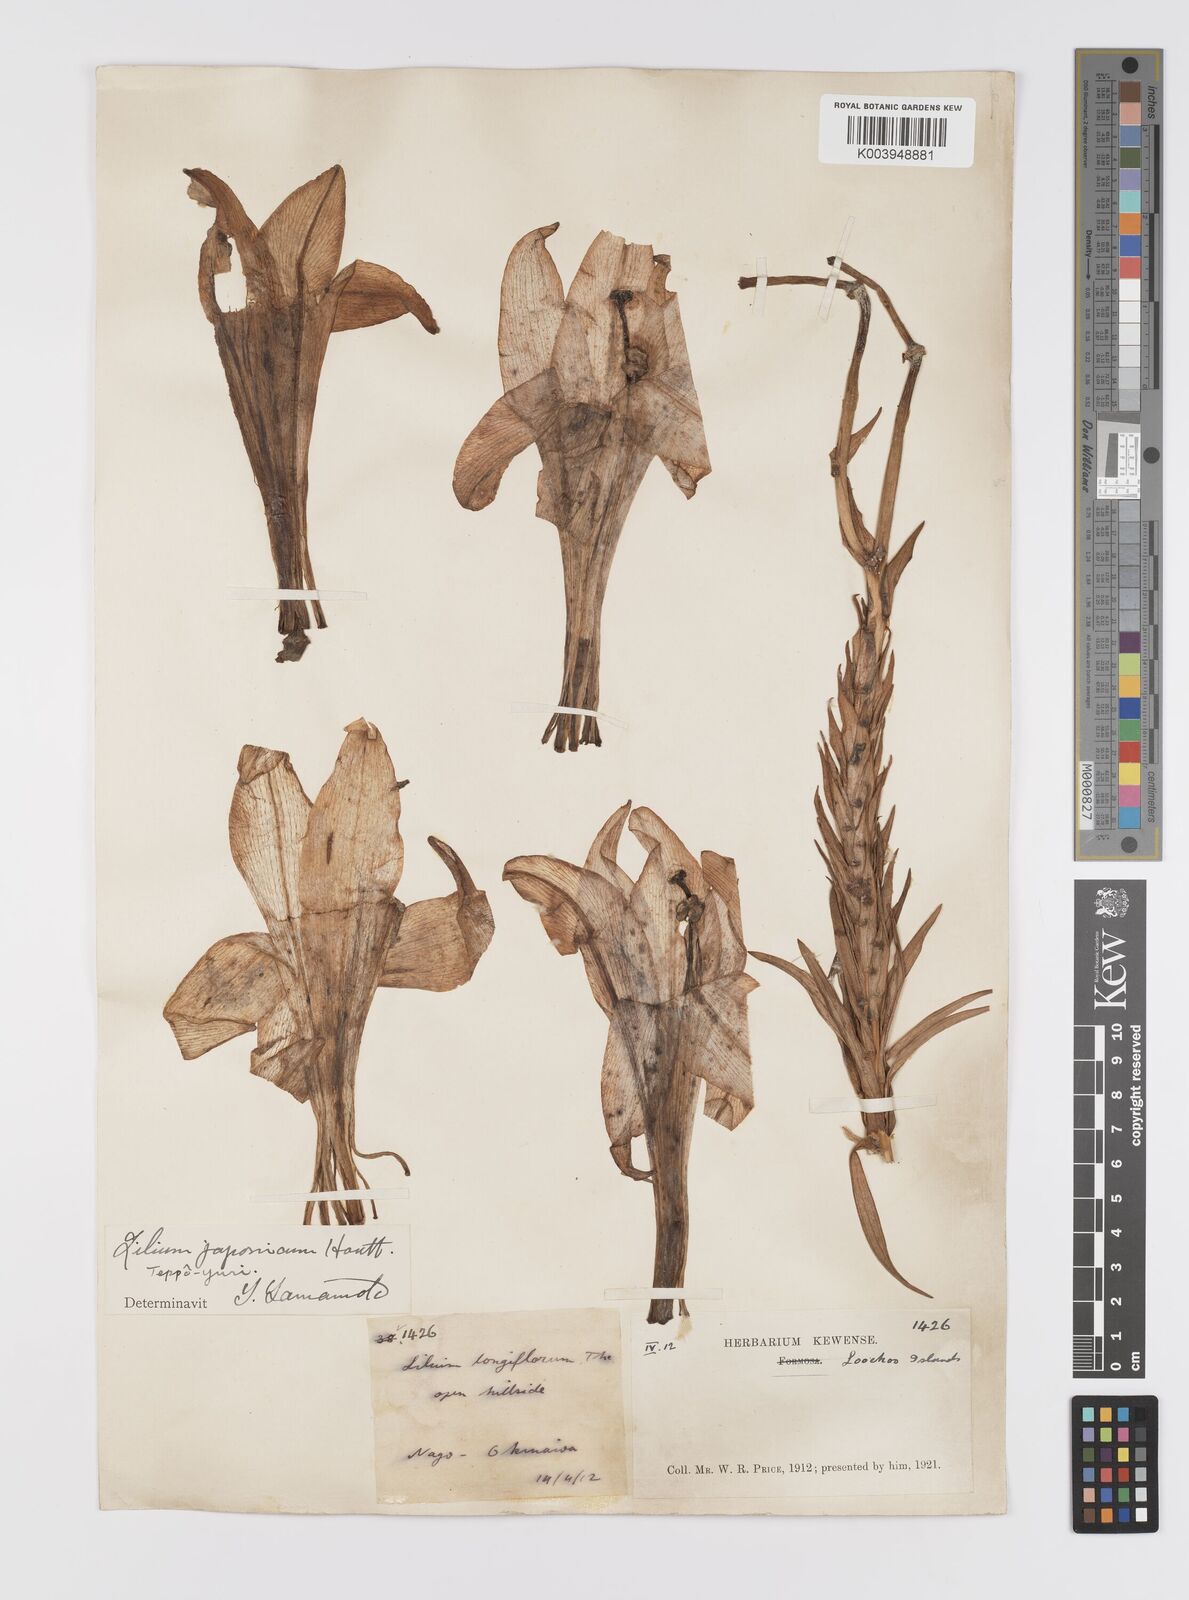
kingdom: Plantae
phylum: Tracheophyta
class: Liliopsida
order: Liliales
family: Liliaceae
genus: Lilium
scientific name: Lilium longiflorum
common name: Easter lily
